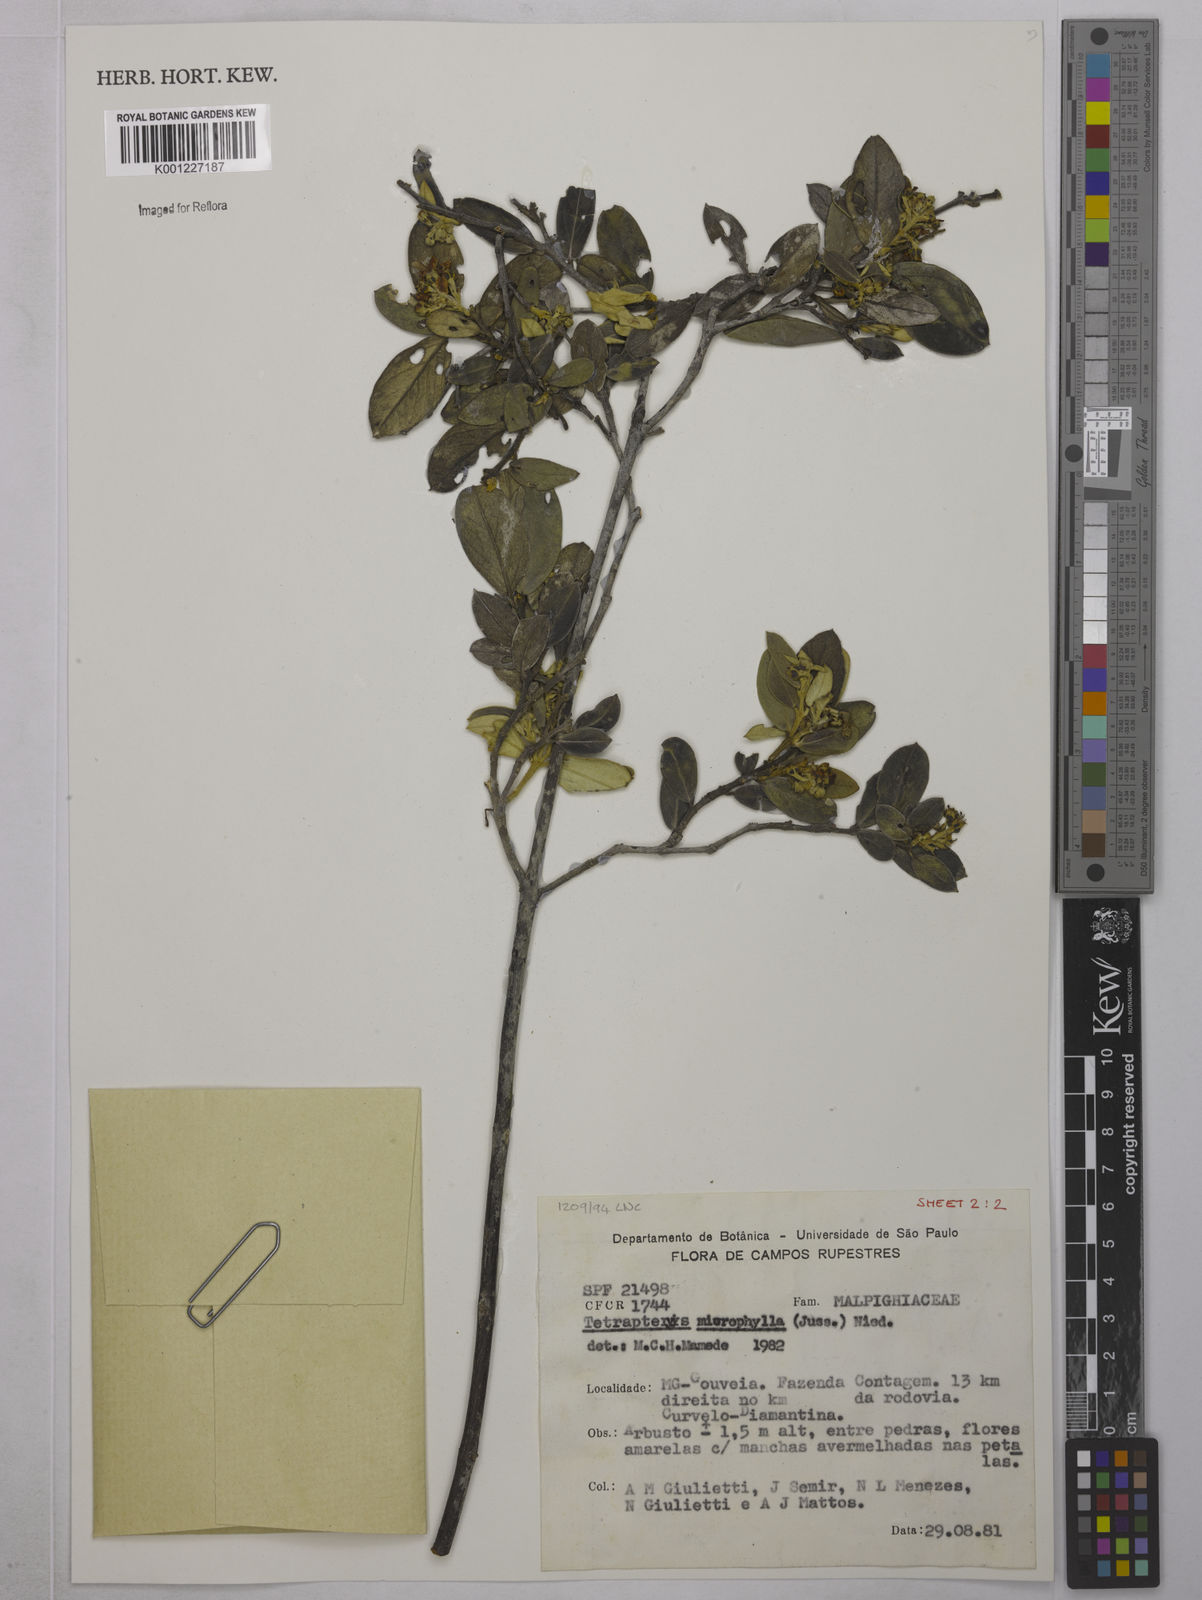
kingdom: Plantae
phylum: Tracheophyta
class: Magnoliopsida
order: Malpighiales
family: Malpighiaceae
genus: Glicophyllum
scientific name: Glicophyllum microphyllum
